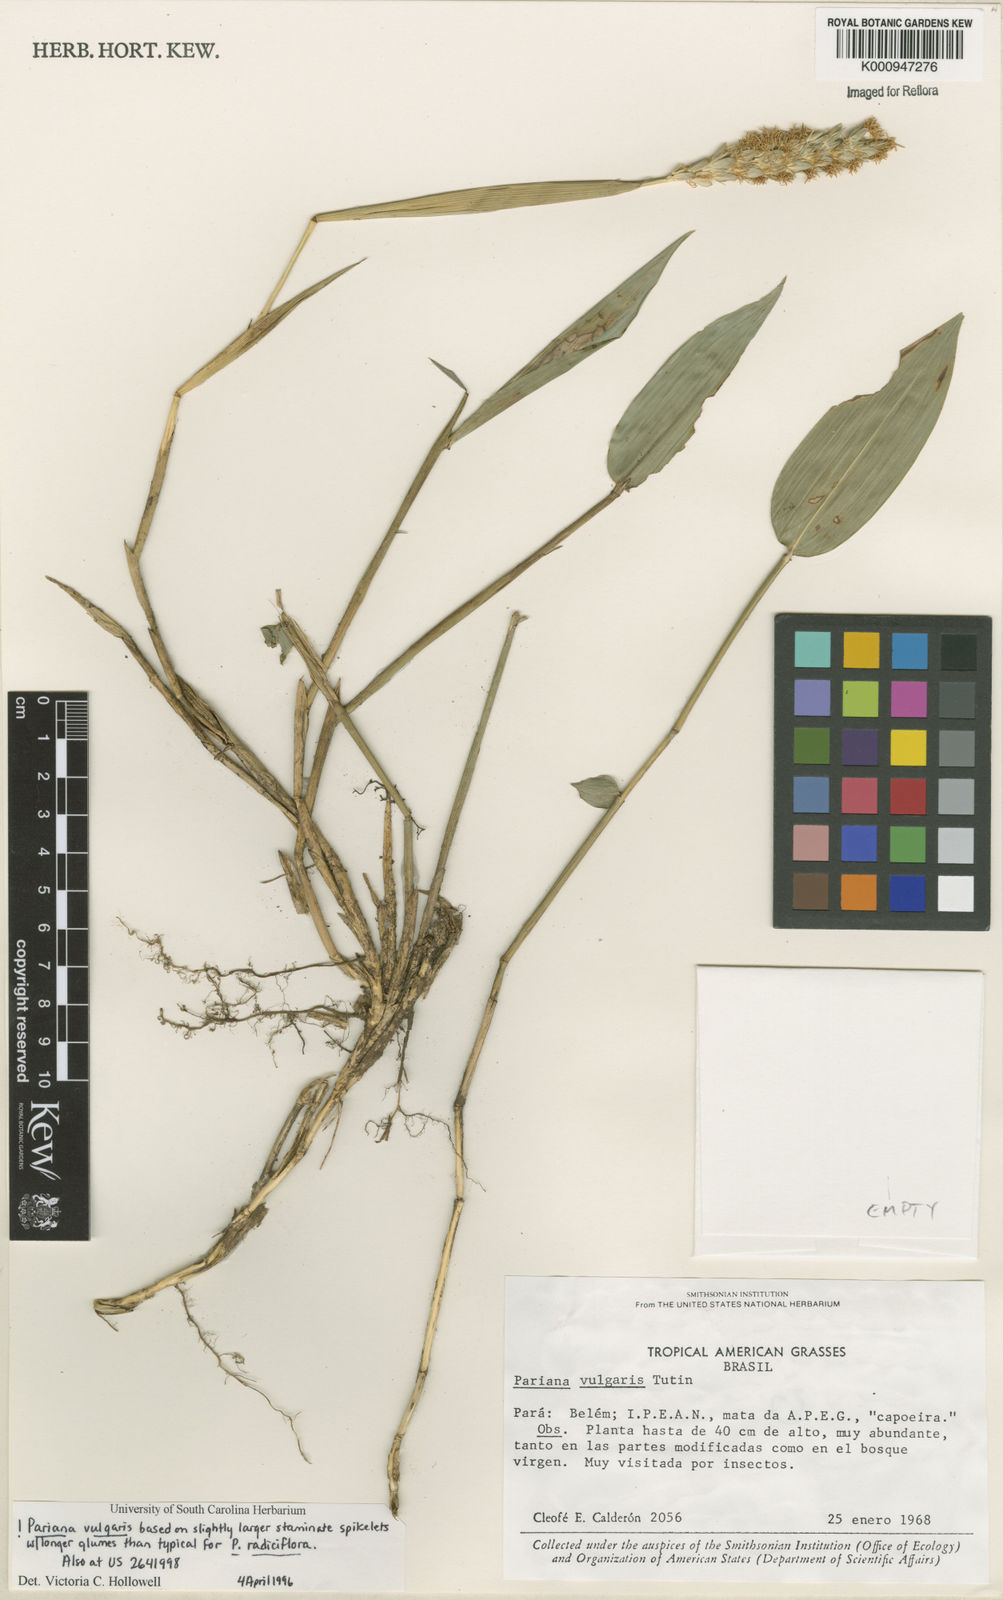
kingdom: Plantae
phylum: Tracheophyta
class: Liliopsida
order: Poales
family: Poaceae
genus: Pariana
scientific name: Pariana vulgaris
